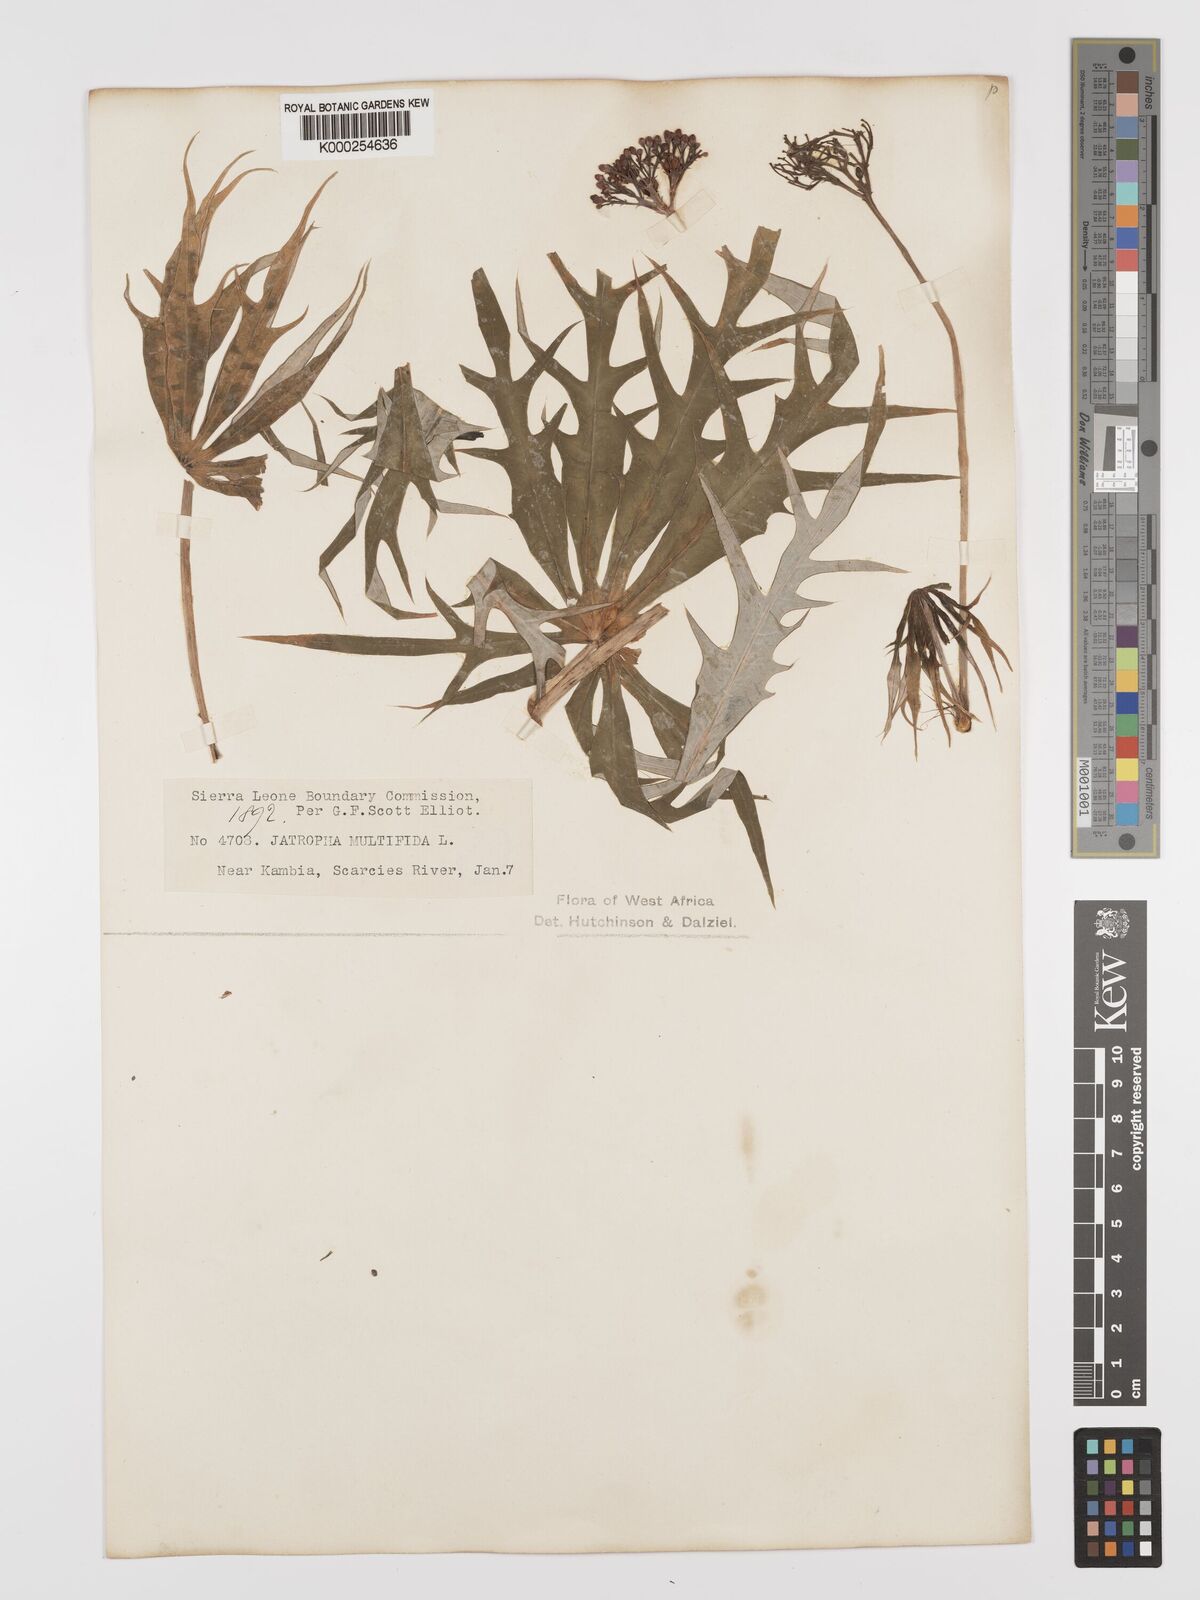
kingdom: Plantae
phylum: Tracheophyta
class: Magnoliopsida
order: Malpighiales
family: Euphorbiaceae
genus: Jatropha
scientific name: Jatropha multifida
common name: Coralbush
